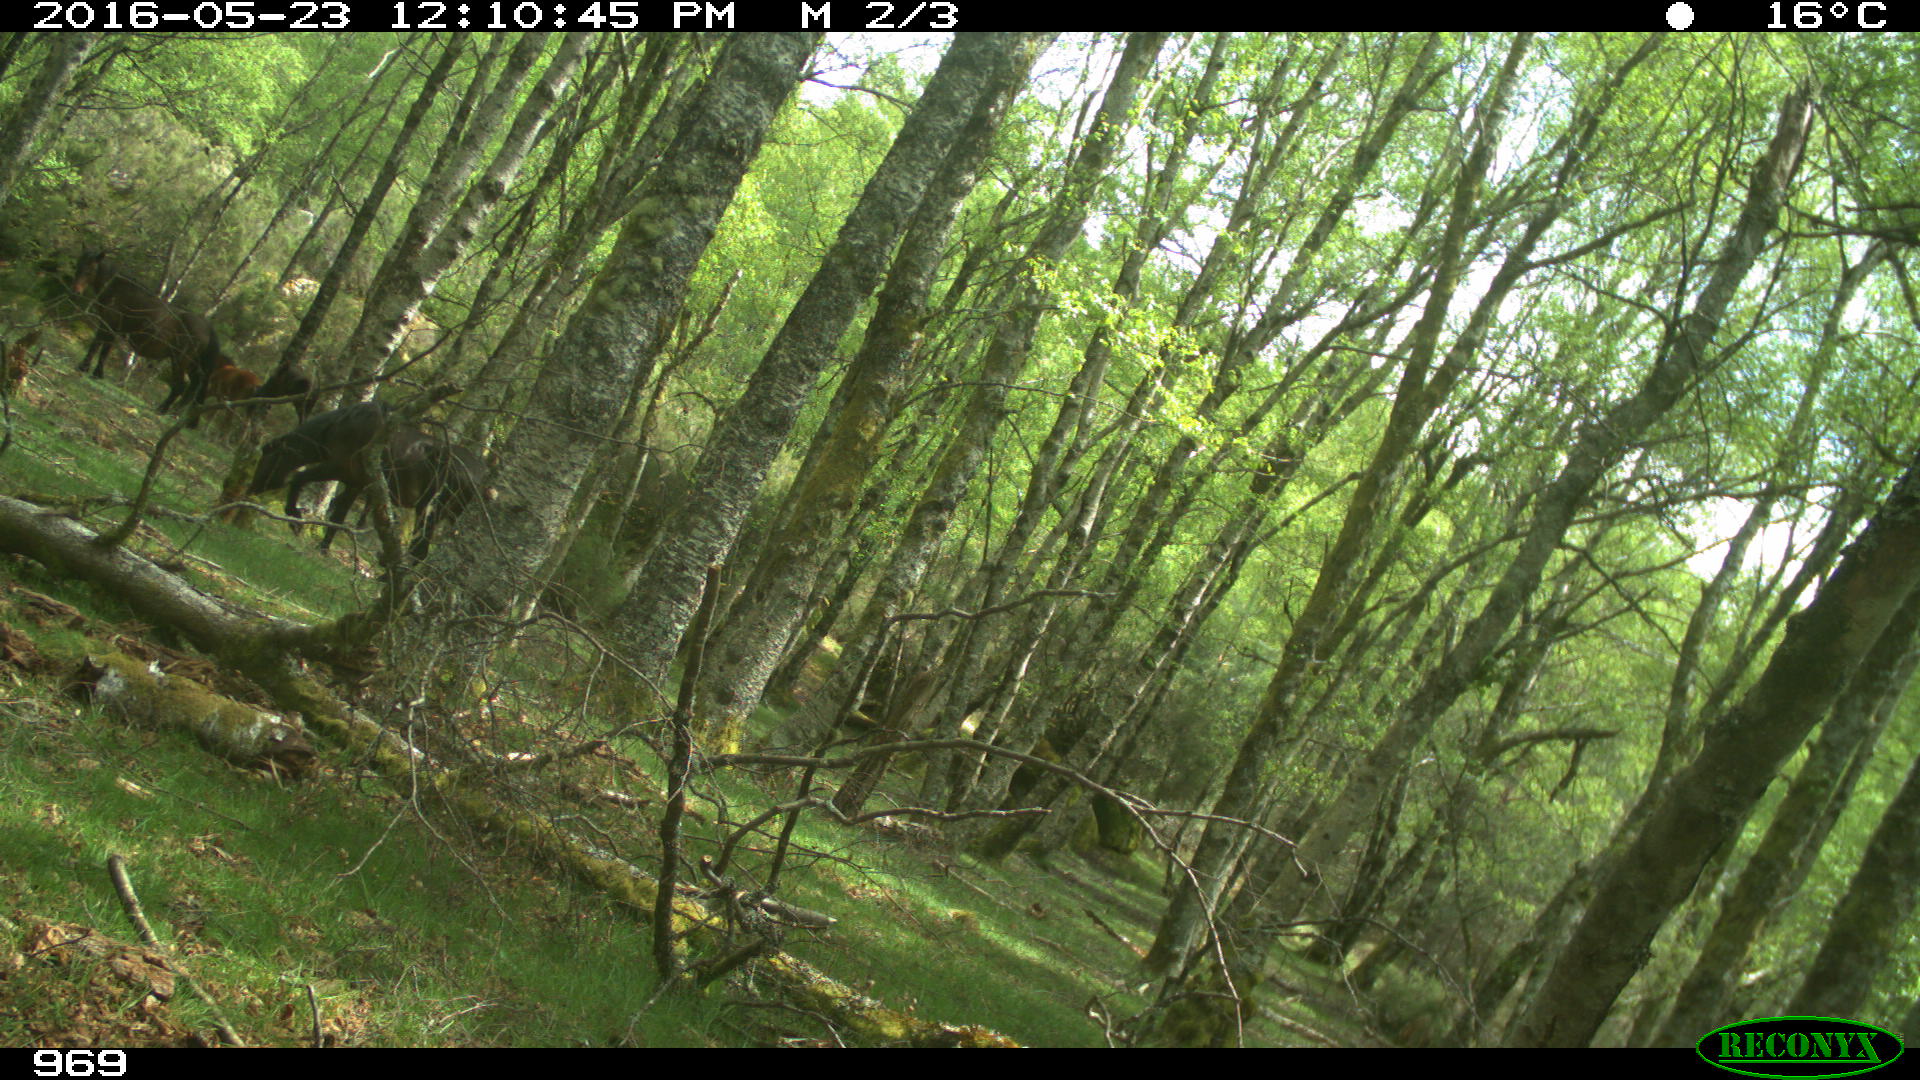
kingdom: Animalia
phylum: Chordata
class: Mammalia
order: Perissodactyla
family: Equidae
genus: Equus
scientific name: Equus caballus
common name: Horse
